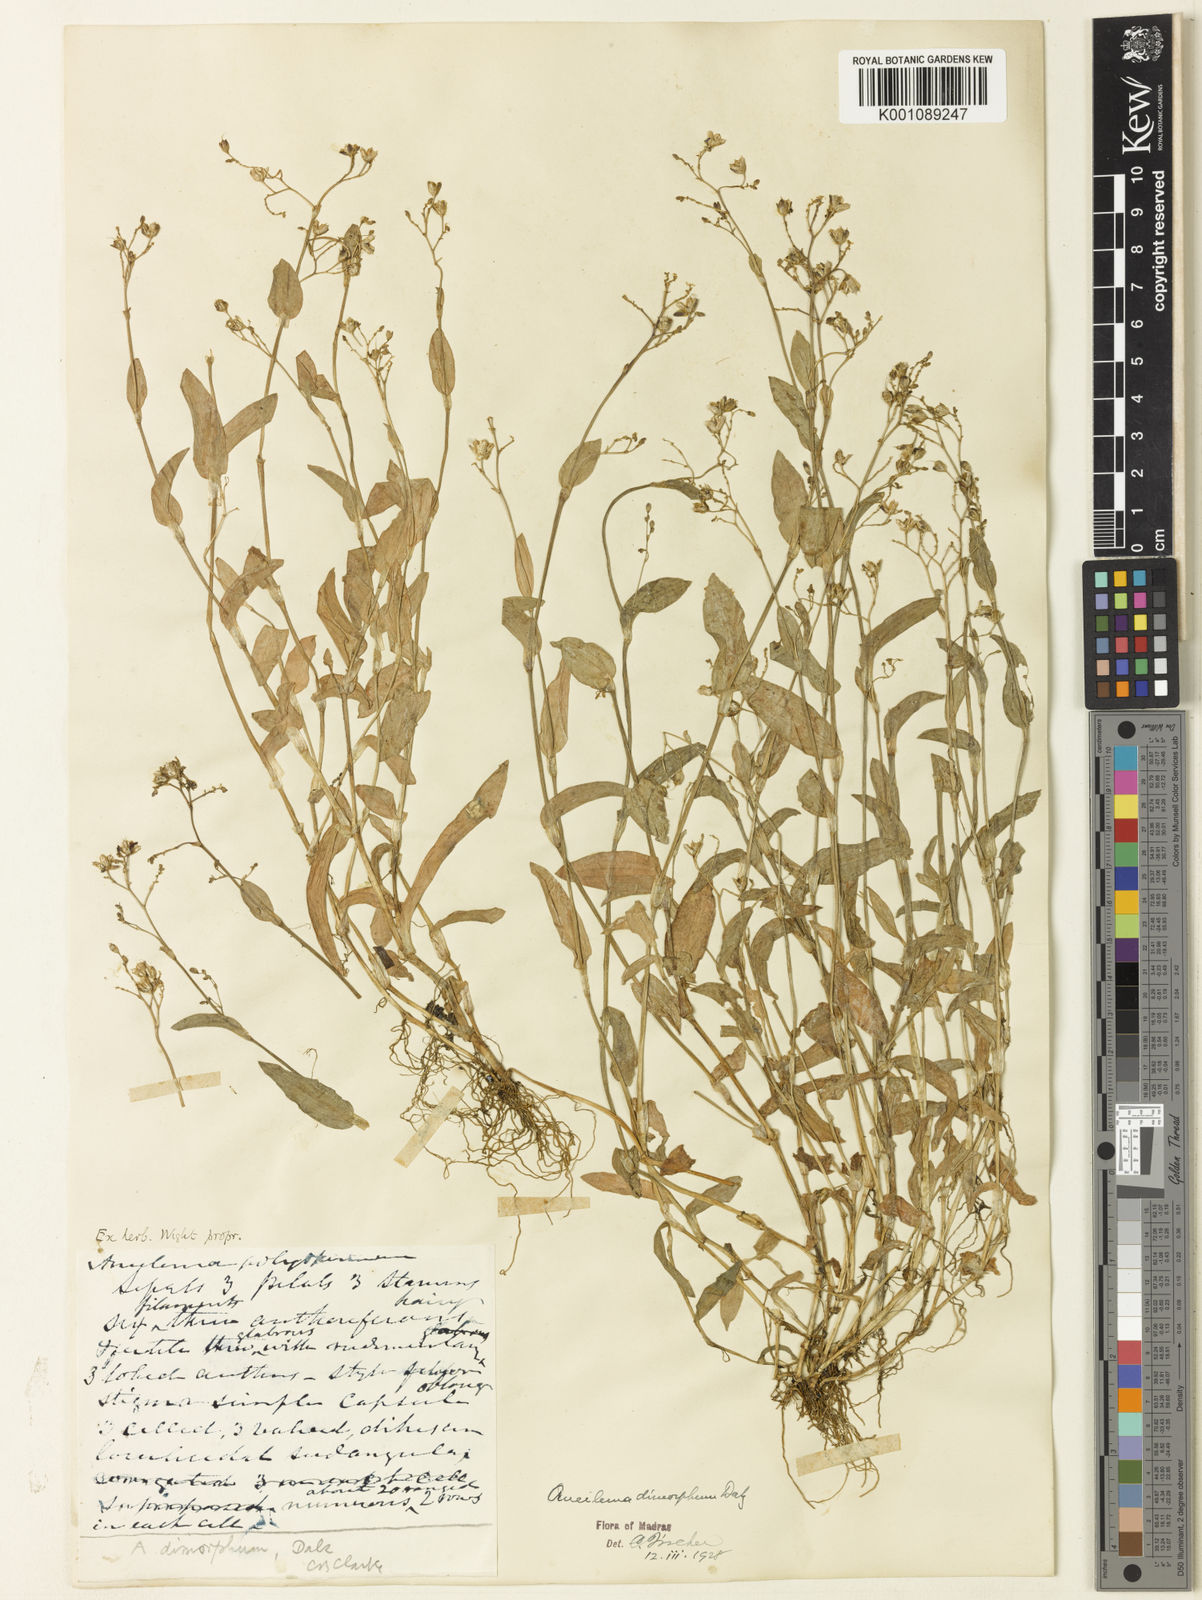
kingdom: Plantae
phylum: Tracheophyta
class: Liliopsida
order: Commelinales
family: Commelinaceae
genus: Murdannia
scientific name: Murdannia
